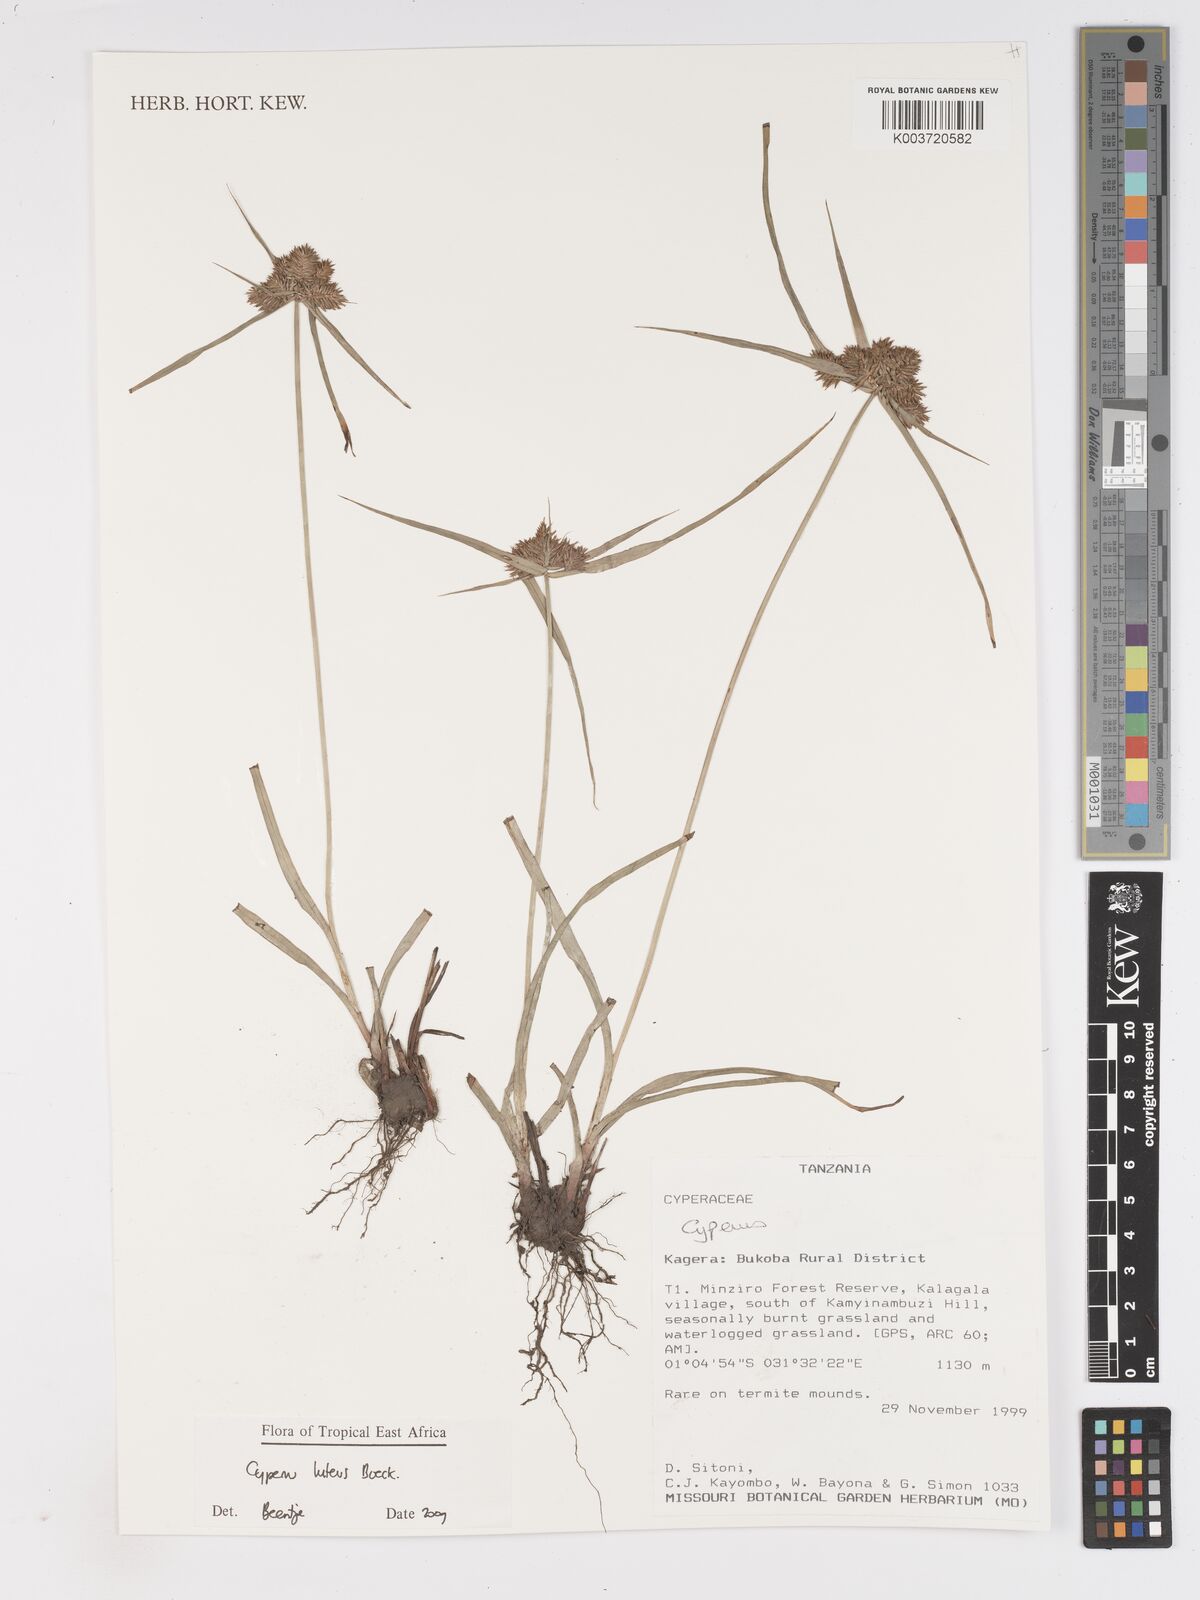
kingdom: Plantae
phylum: Tracheophyta
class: Liliopsida
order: Poales
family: Cyperaceae
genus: Cyperus
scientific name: Cyperus luteus
